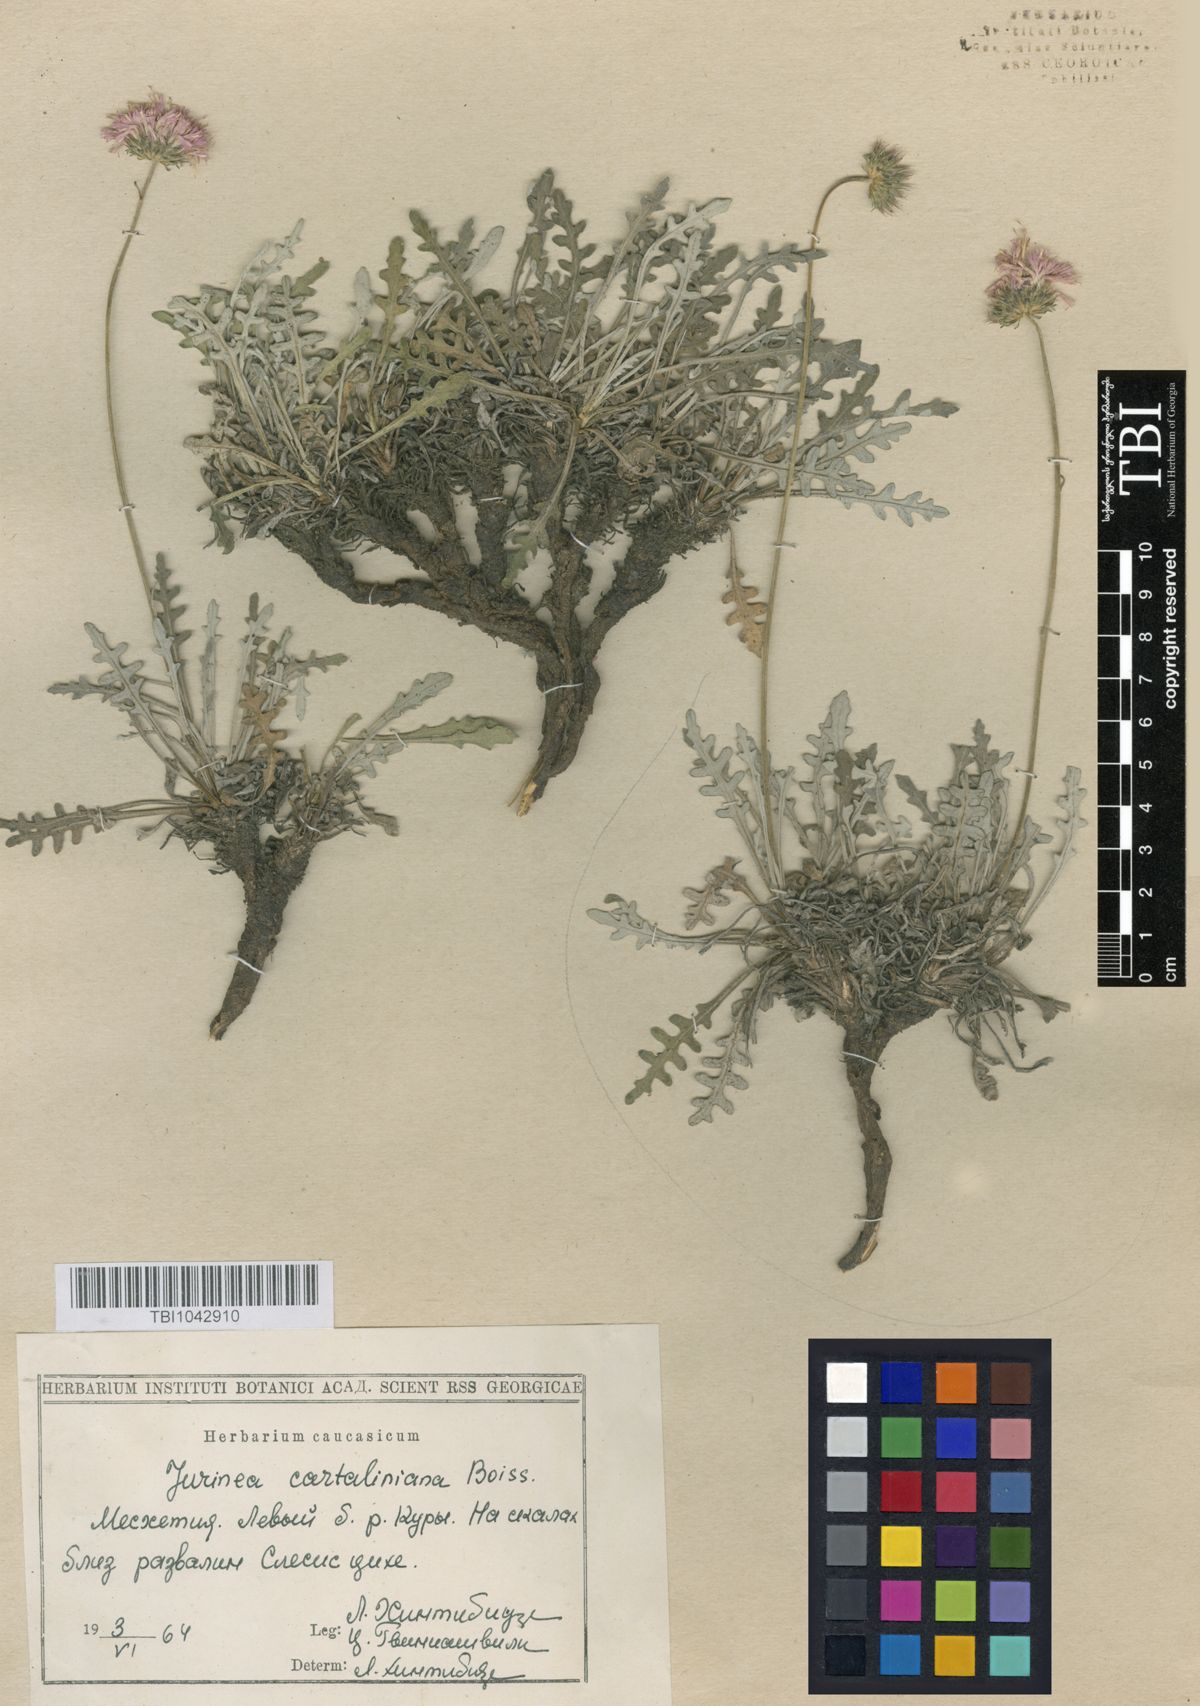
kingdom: Plantae
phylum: Tracheophyta
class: Magnoliopsida
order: Asterales
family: Asteraceae
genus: Jurinea
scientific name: Jurinea cartaliniana
